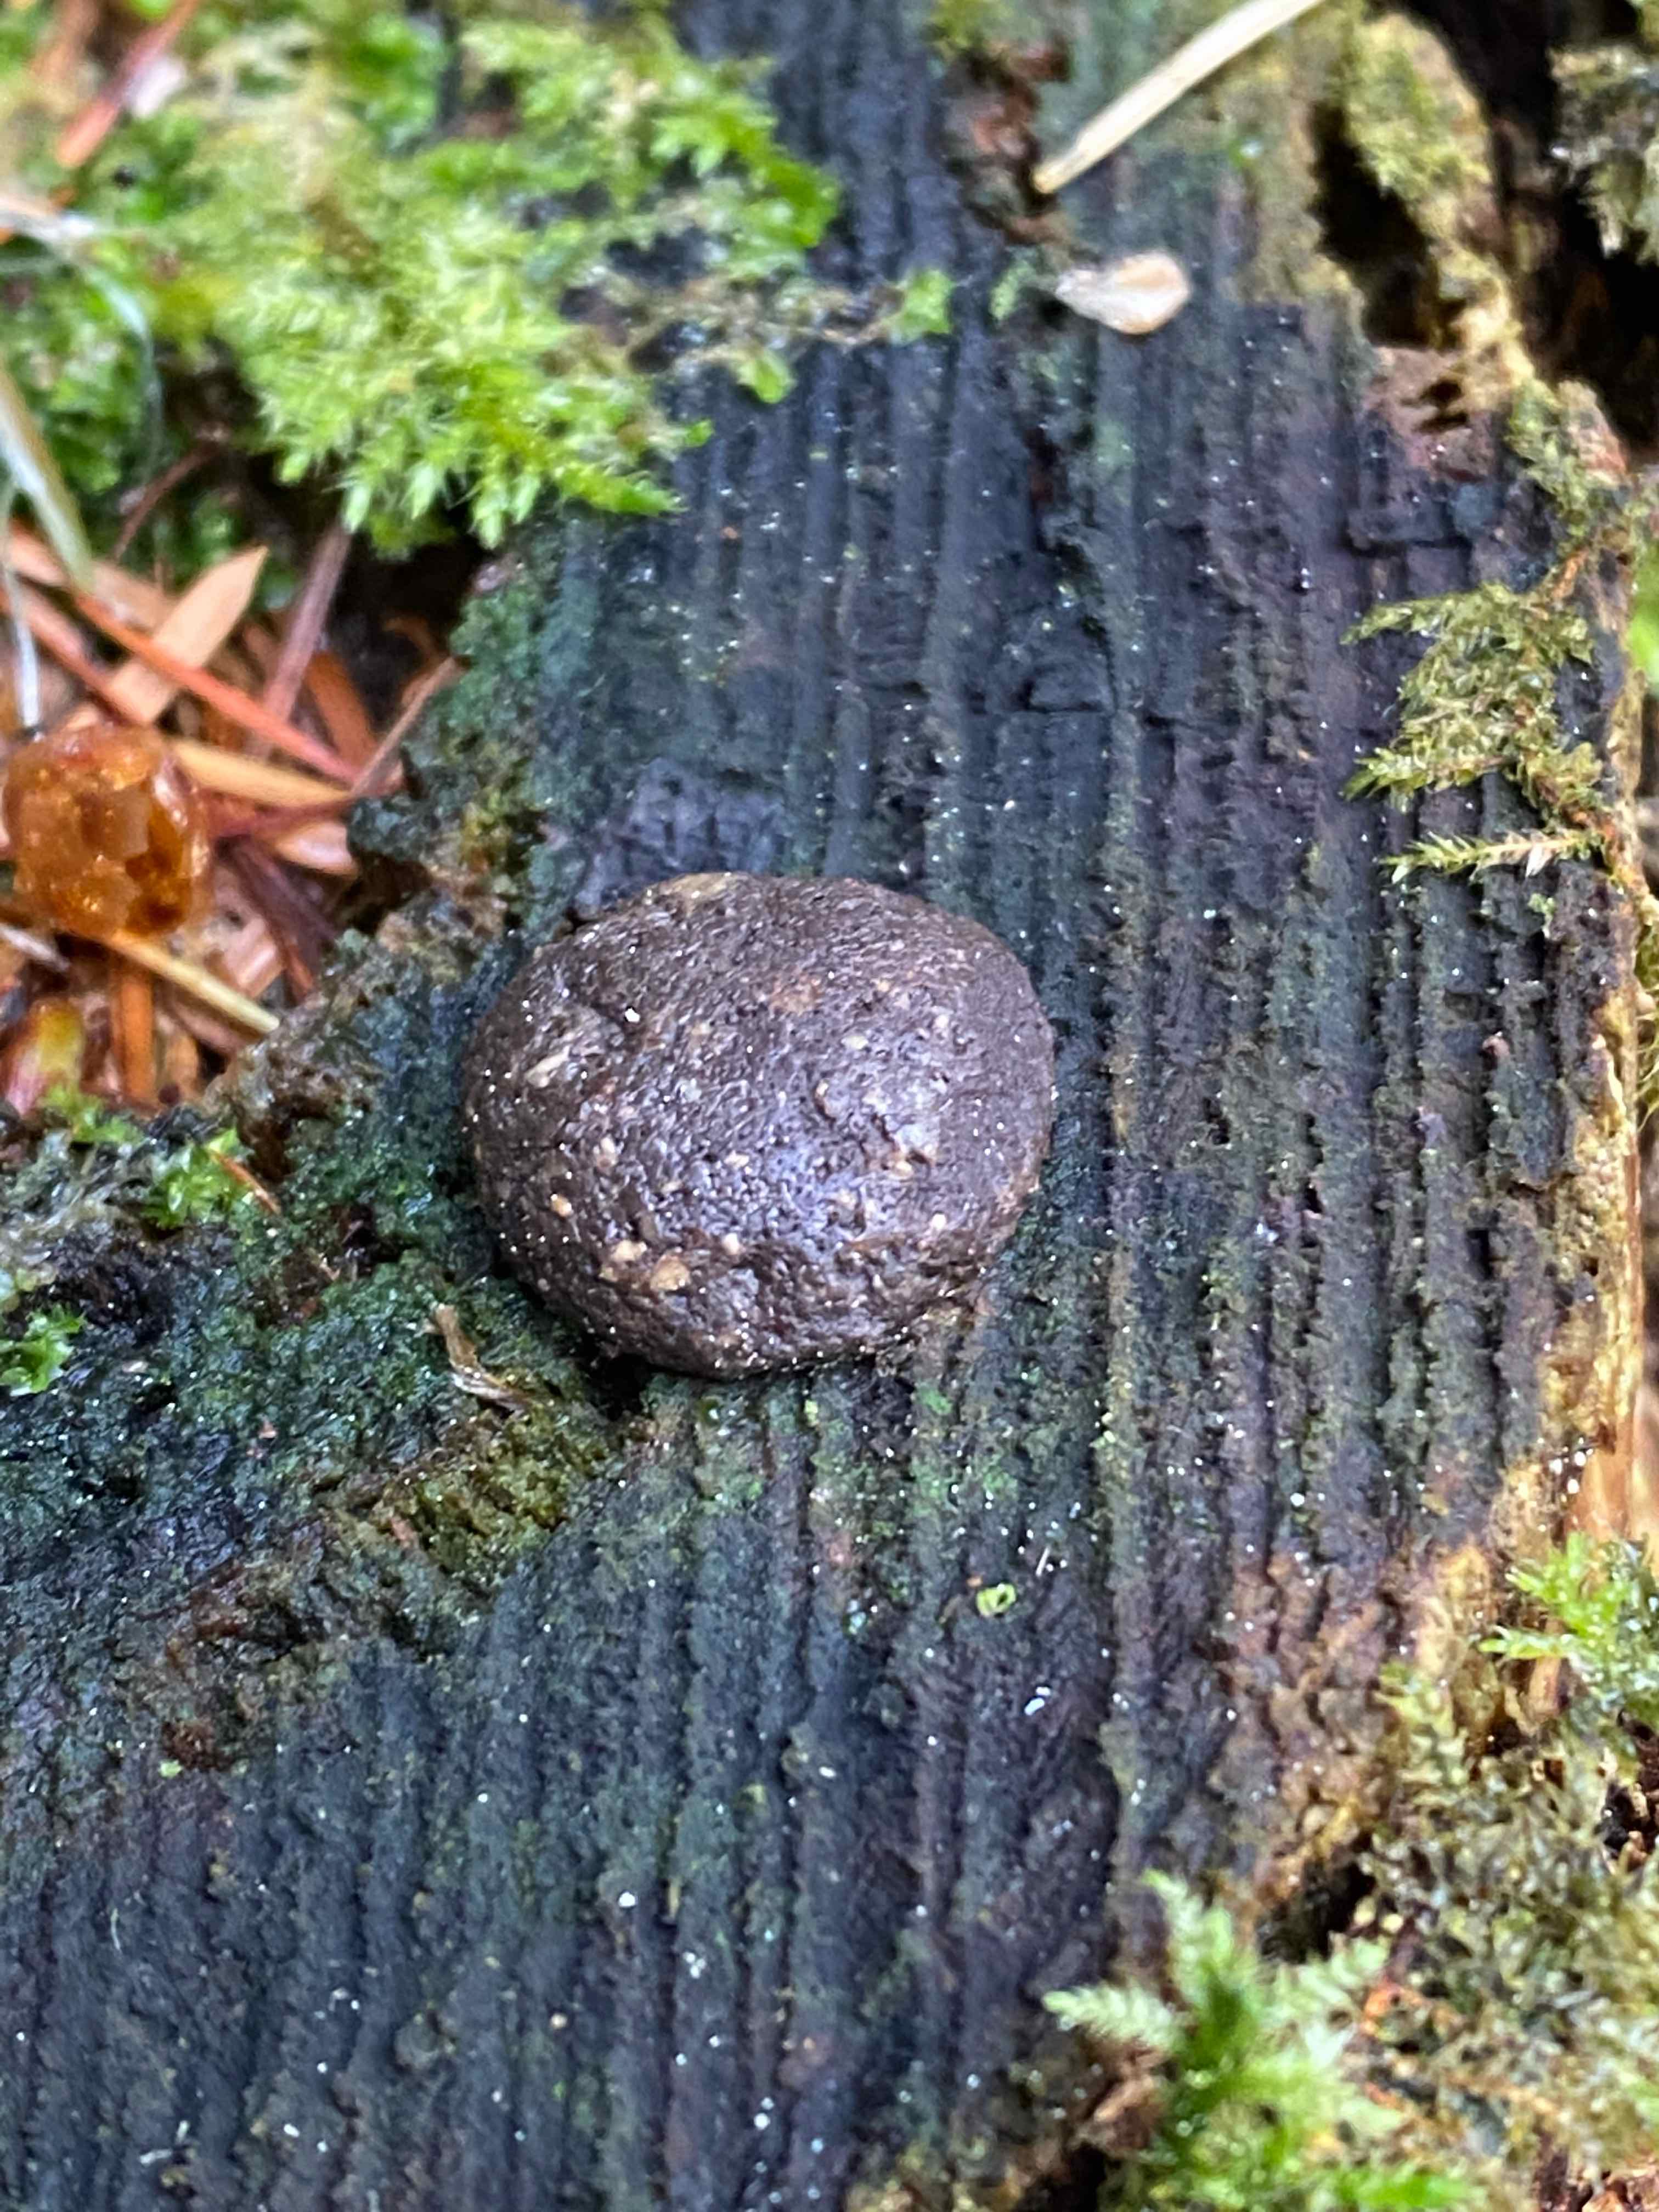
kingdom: Protozoa
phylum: Mycetozoa
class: Myxomycetes
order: Cribrariales
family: Tubiferaceae
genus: Tubifera
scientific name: Tubifera
